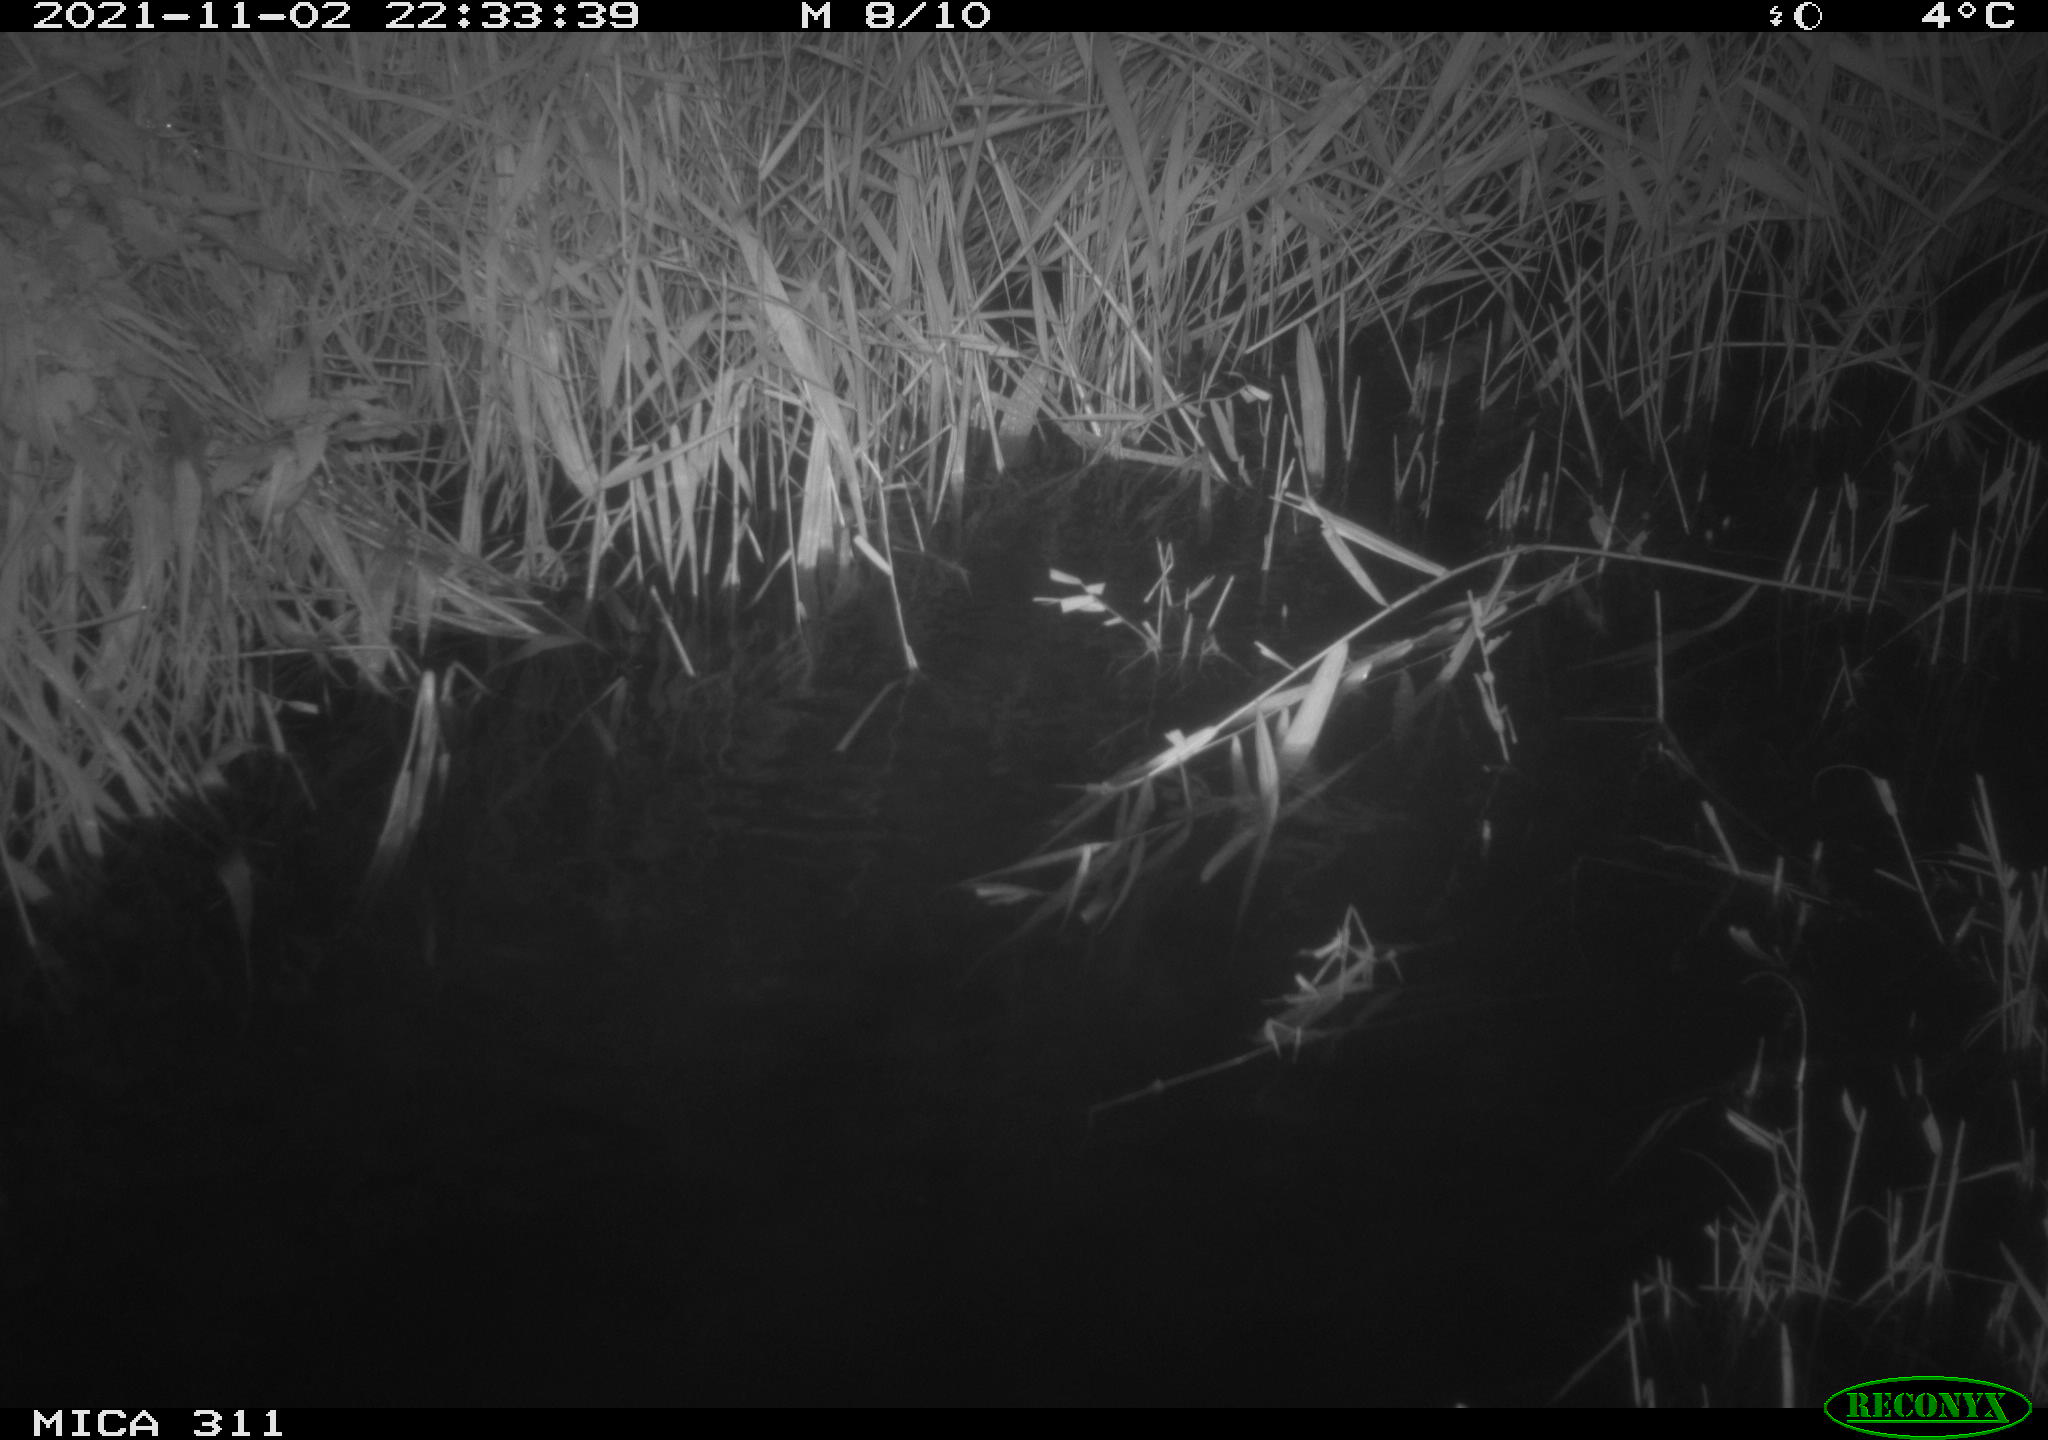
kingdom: Animalia
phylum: Chordata
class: Mammalia
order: Rodentia
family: Muridae
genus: Rattus
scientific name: Rattus norvegicus
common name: Brown rat
